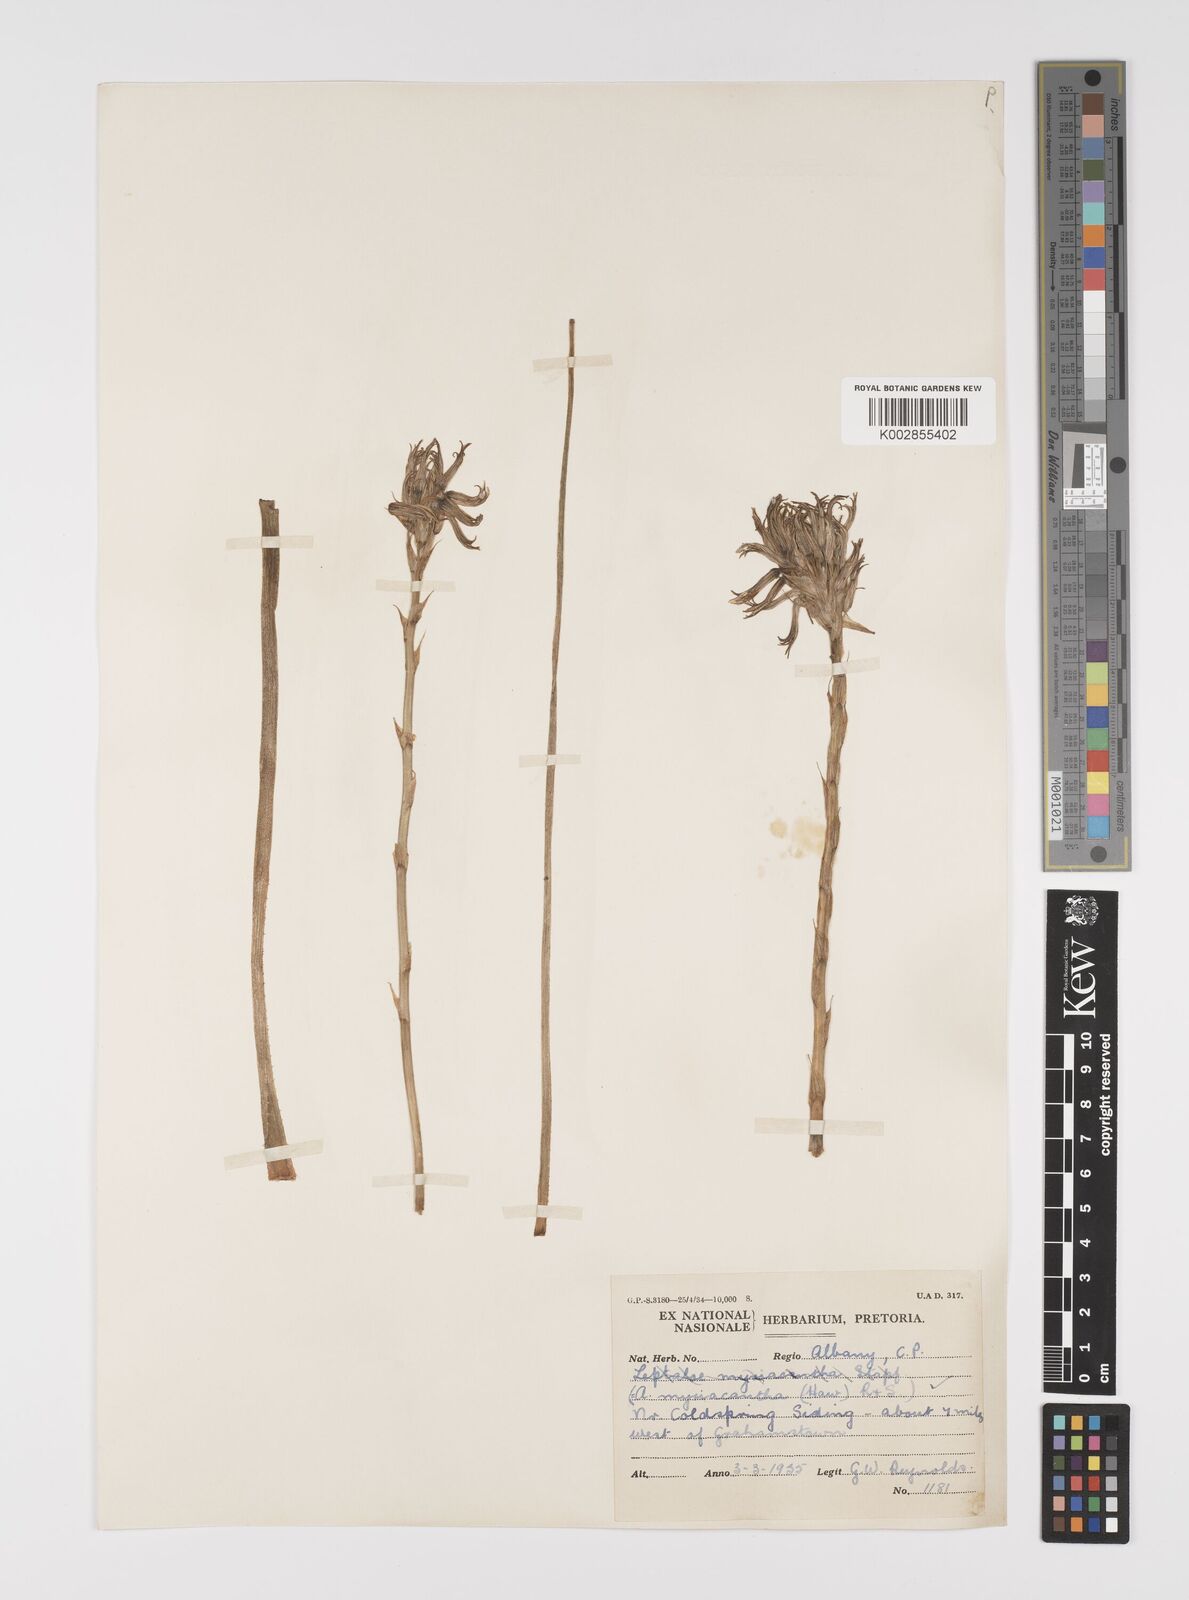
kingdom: Plantae
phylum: Tracheophyta
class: Liliopsida
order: Asparagales
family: Asphodelaceae
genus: Aloe
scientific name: Aloe myriacantha
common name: Grass aloe
